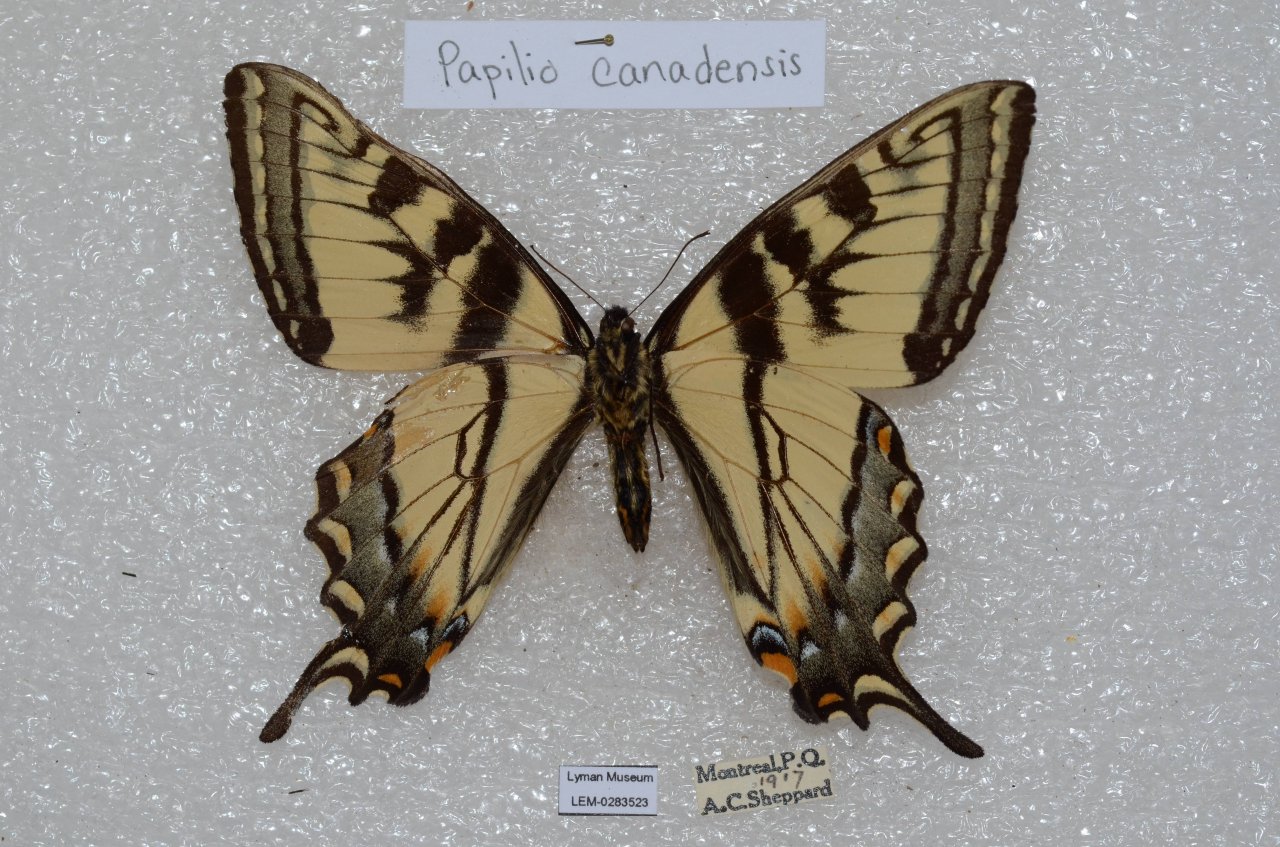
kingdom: Animalia
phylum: Arthropoda
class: Insecta
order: Lepidoptera
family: Papilionidae
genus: Pterourus
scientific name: Pterourus canadensis
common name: Canadian Tiger Swallowtail
